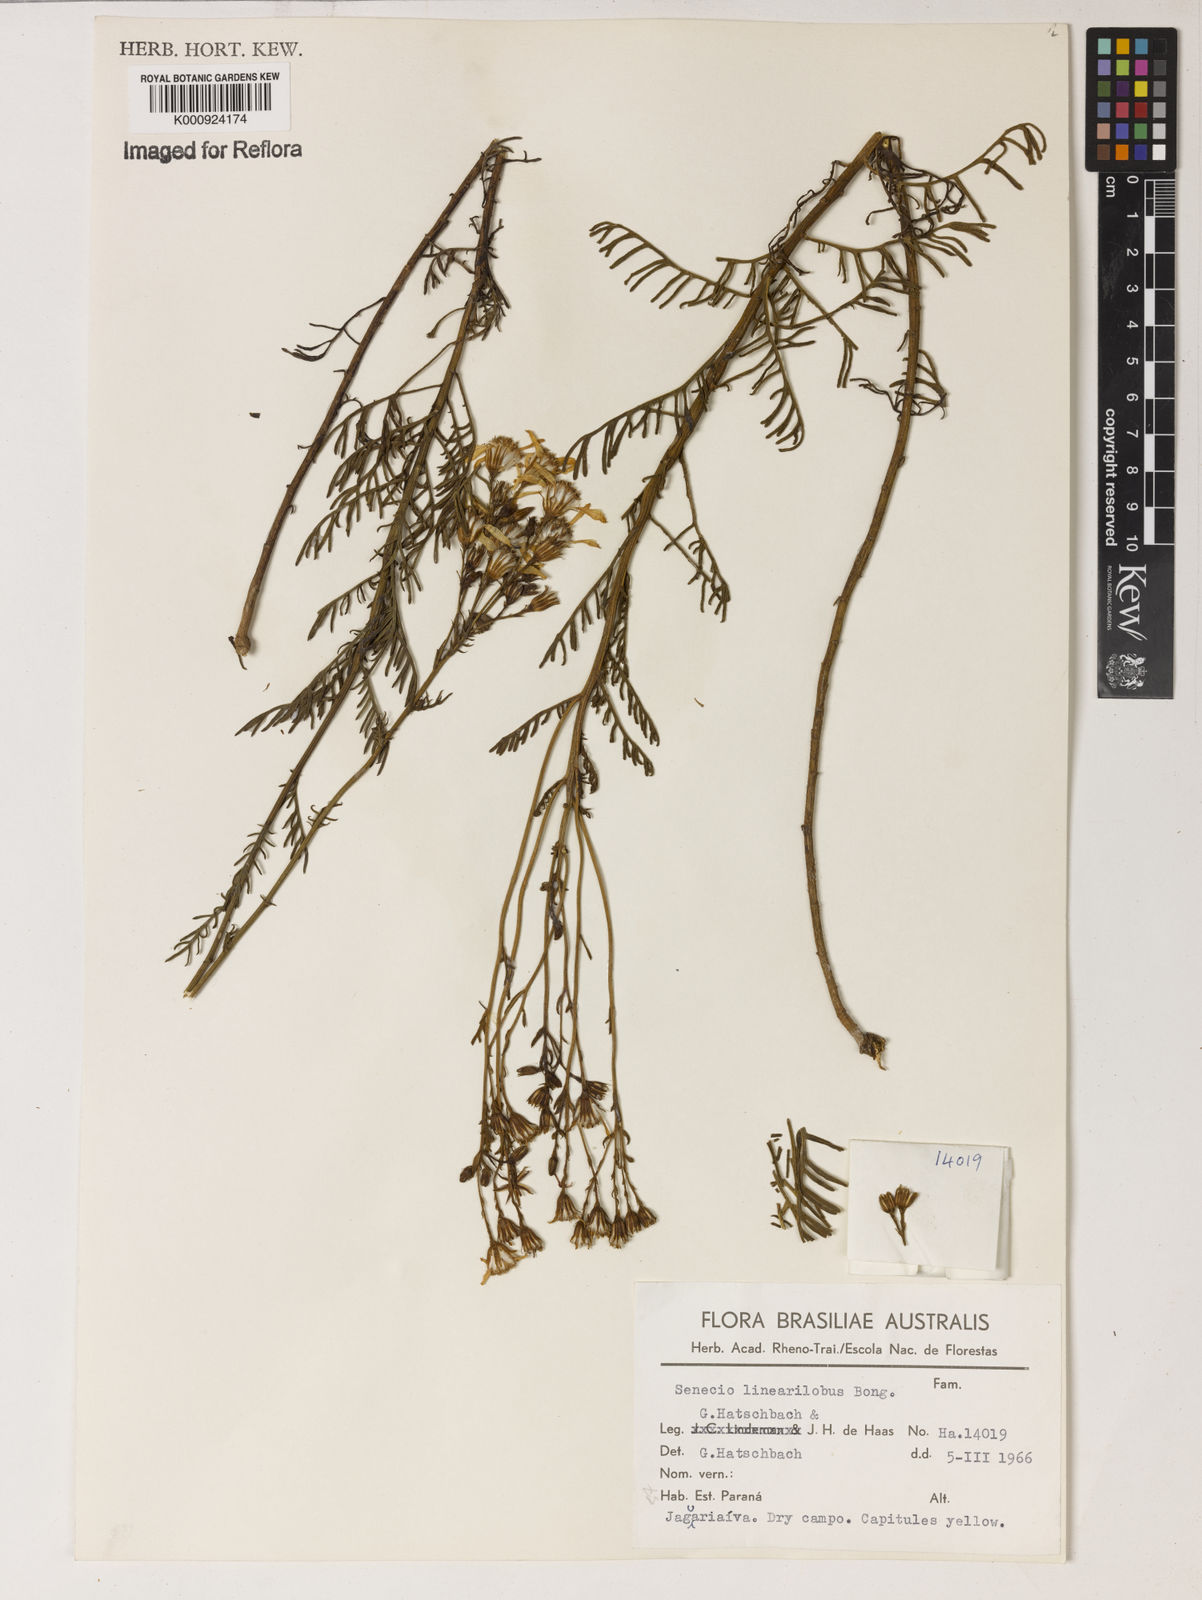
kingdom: Plantae
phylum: Tracheophyta
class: Magnoliopsida
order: Asterales
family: Asteraceae
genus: Senecio
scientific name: Senecio linearilobus
